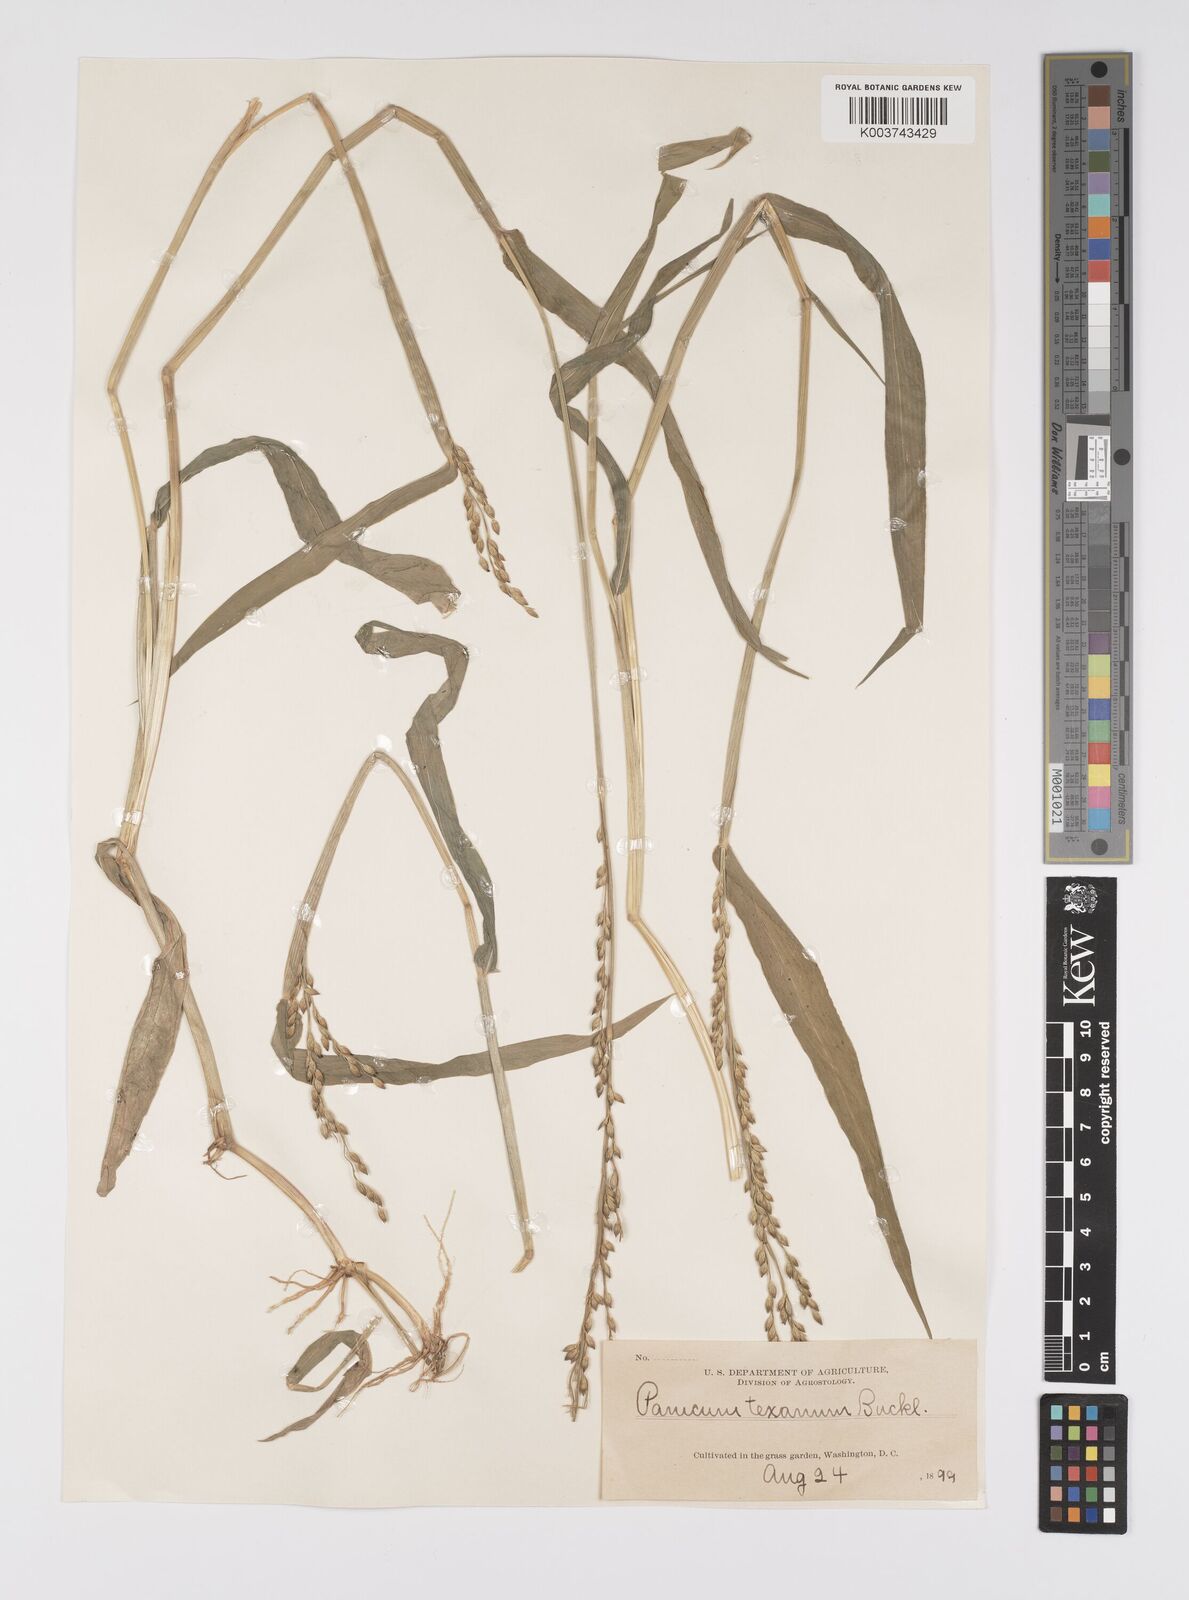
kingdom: Plantae
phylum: Tracheophyta
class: Liliopsida
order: Poales
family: Poaceae
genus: Urochloa
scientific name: Urochloa texana
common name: Texas millet
